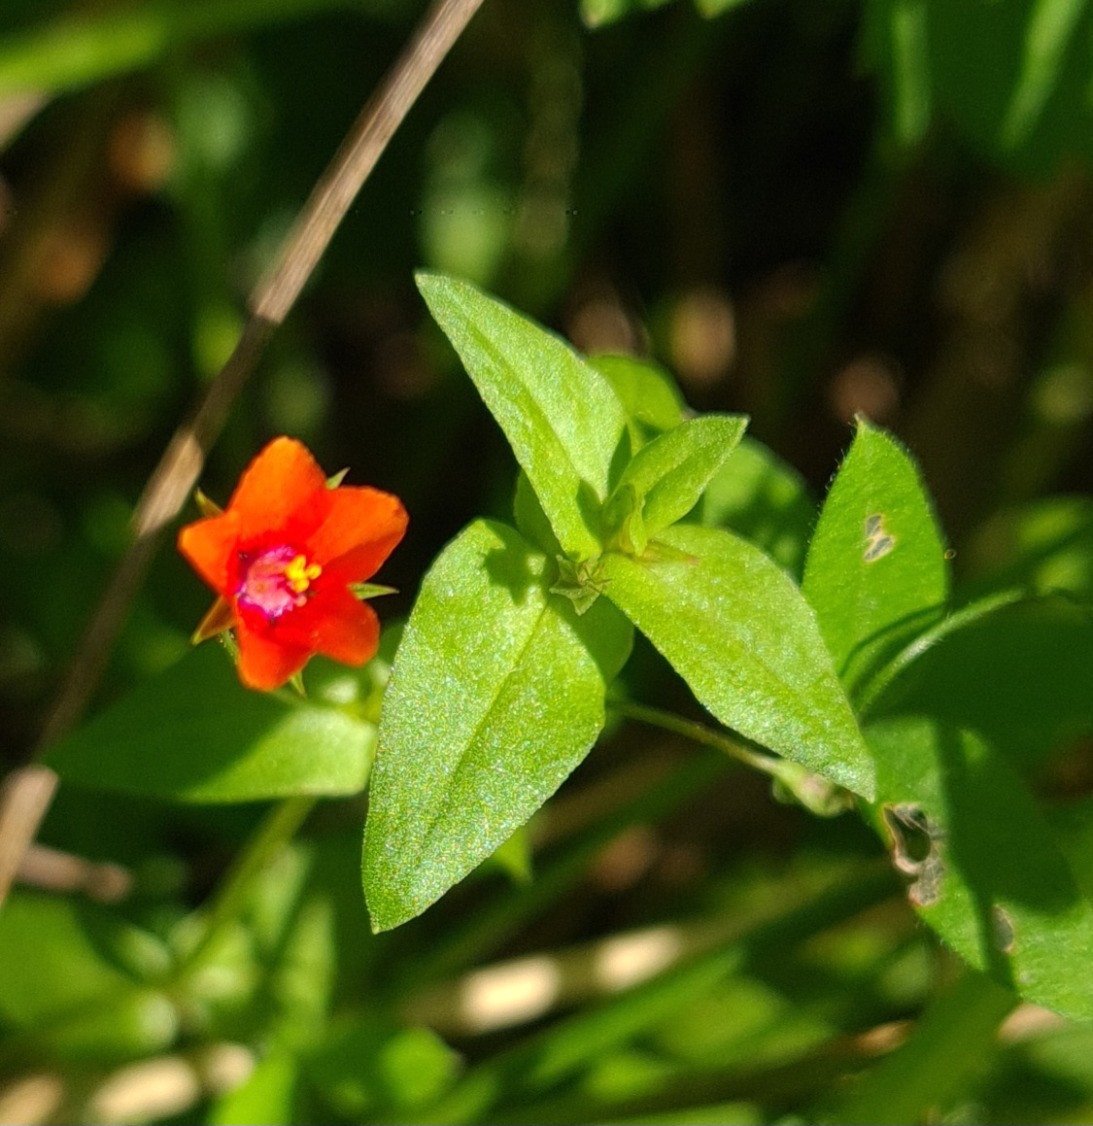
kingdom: Plantae
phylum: Tracheophyta
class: Magnoliopsida
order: Ericales
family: Primulaceae
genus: Lysimachia
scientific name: Lysimachia arvensis
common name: Rød arve
